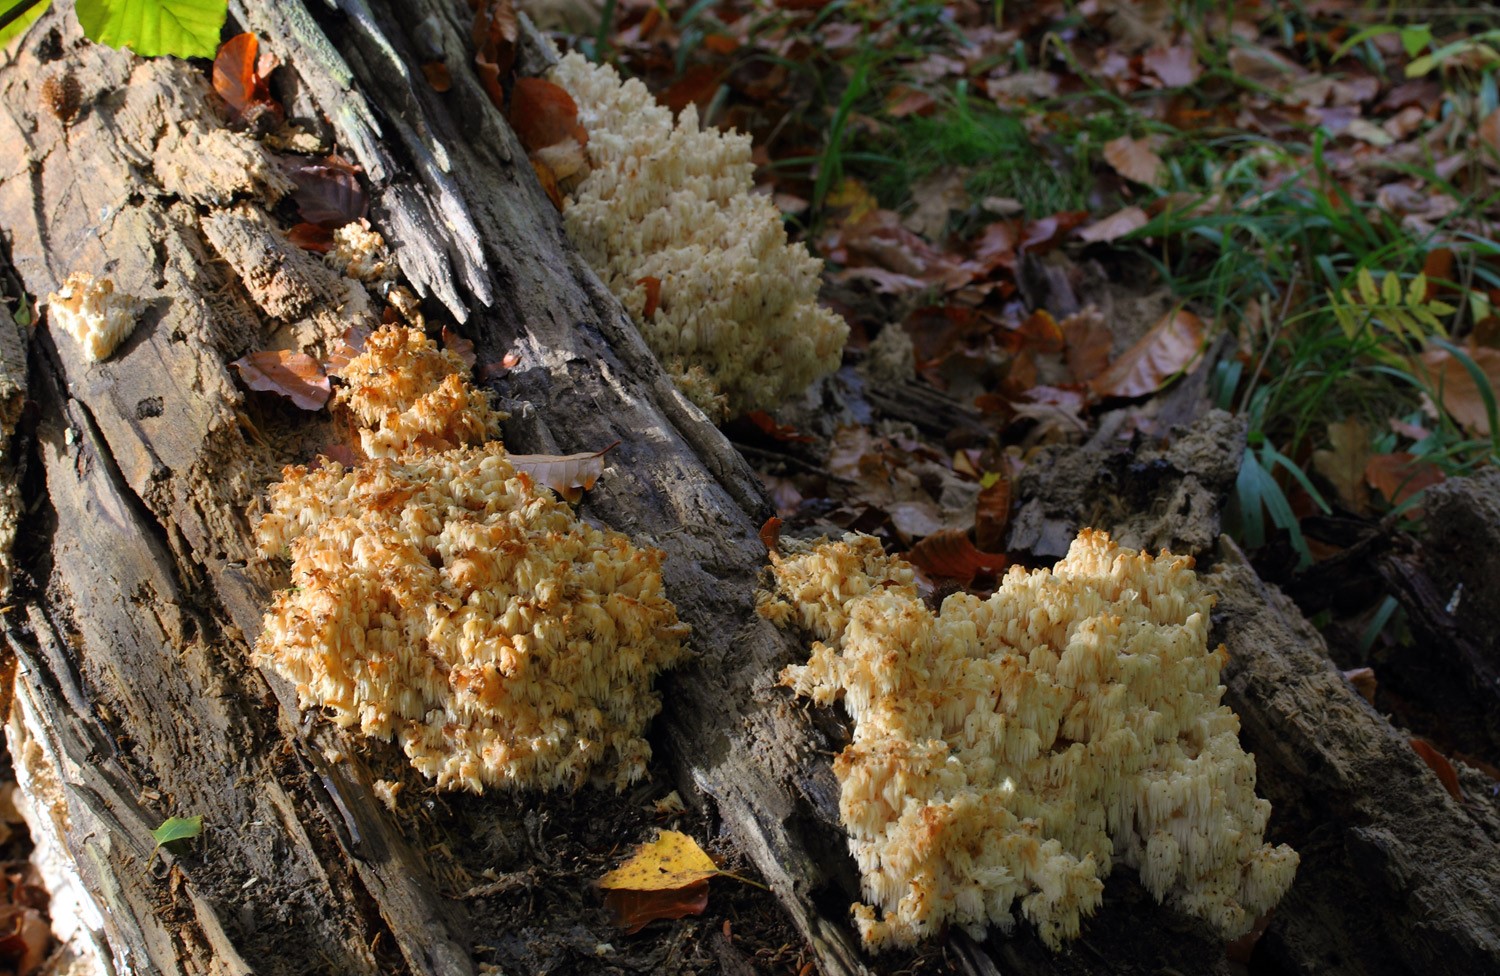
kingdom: Fungi
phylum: Basidiomycota
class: Agaricomycetes
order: Russulales
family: Hericiaceae
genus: Hericium
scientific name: Hericium coralloides
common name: koralpigsvamp
